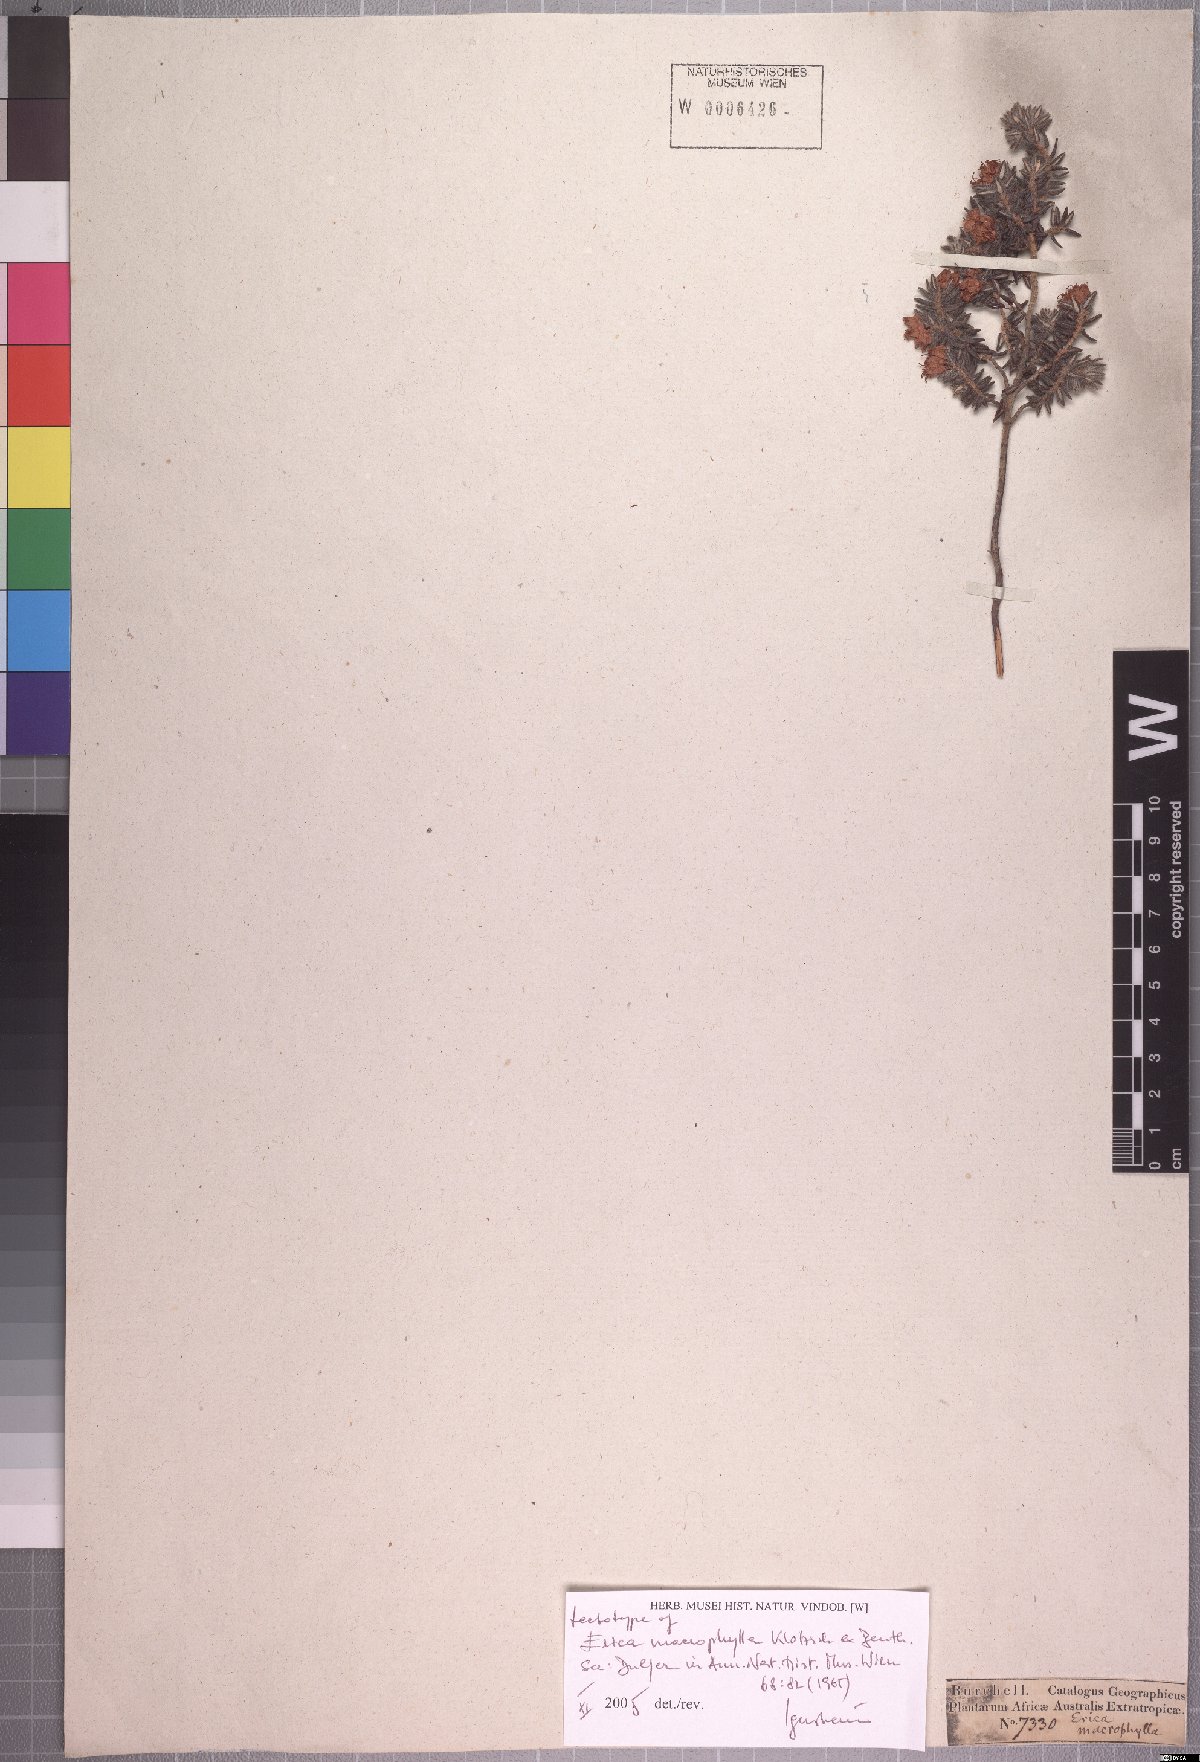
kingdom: Plantae
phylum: Tracheophyta
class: Magnoliopsida
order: Ericales
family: Ericaceae
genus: Erica
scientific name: Erica macrophylla
